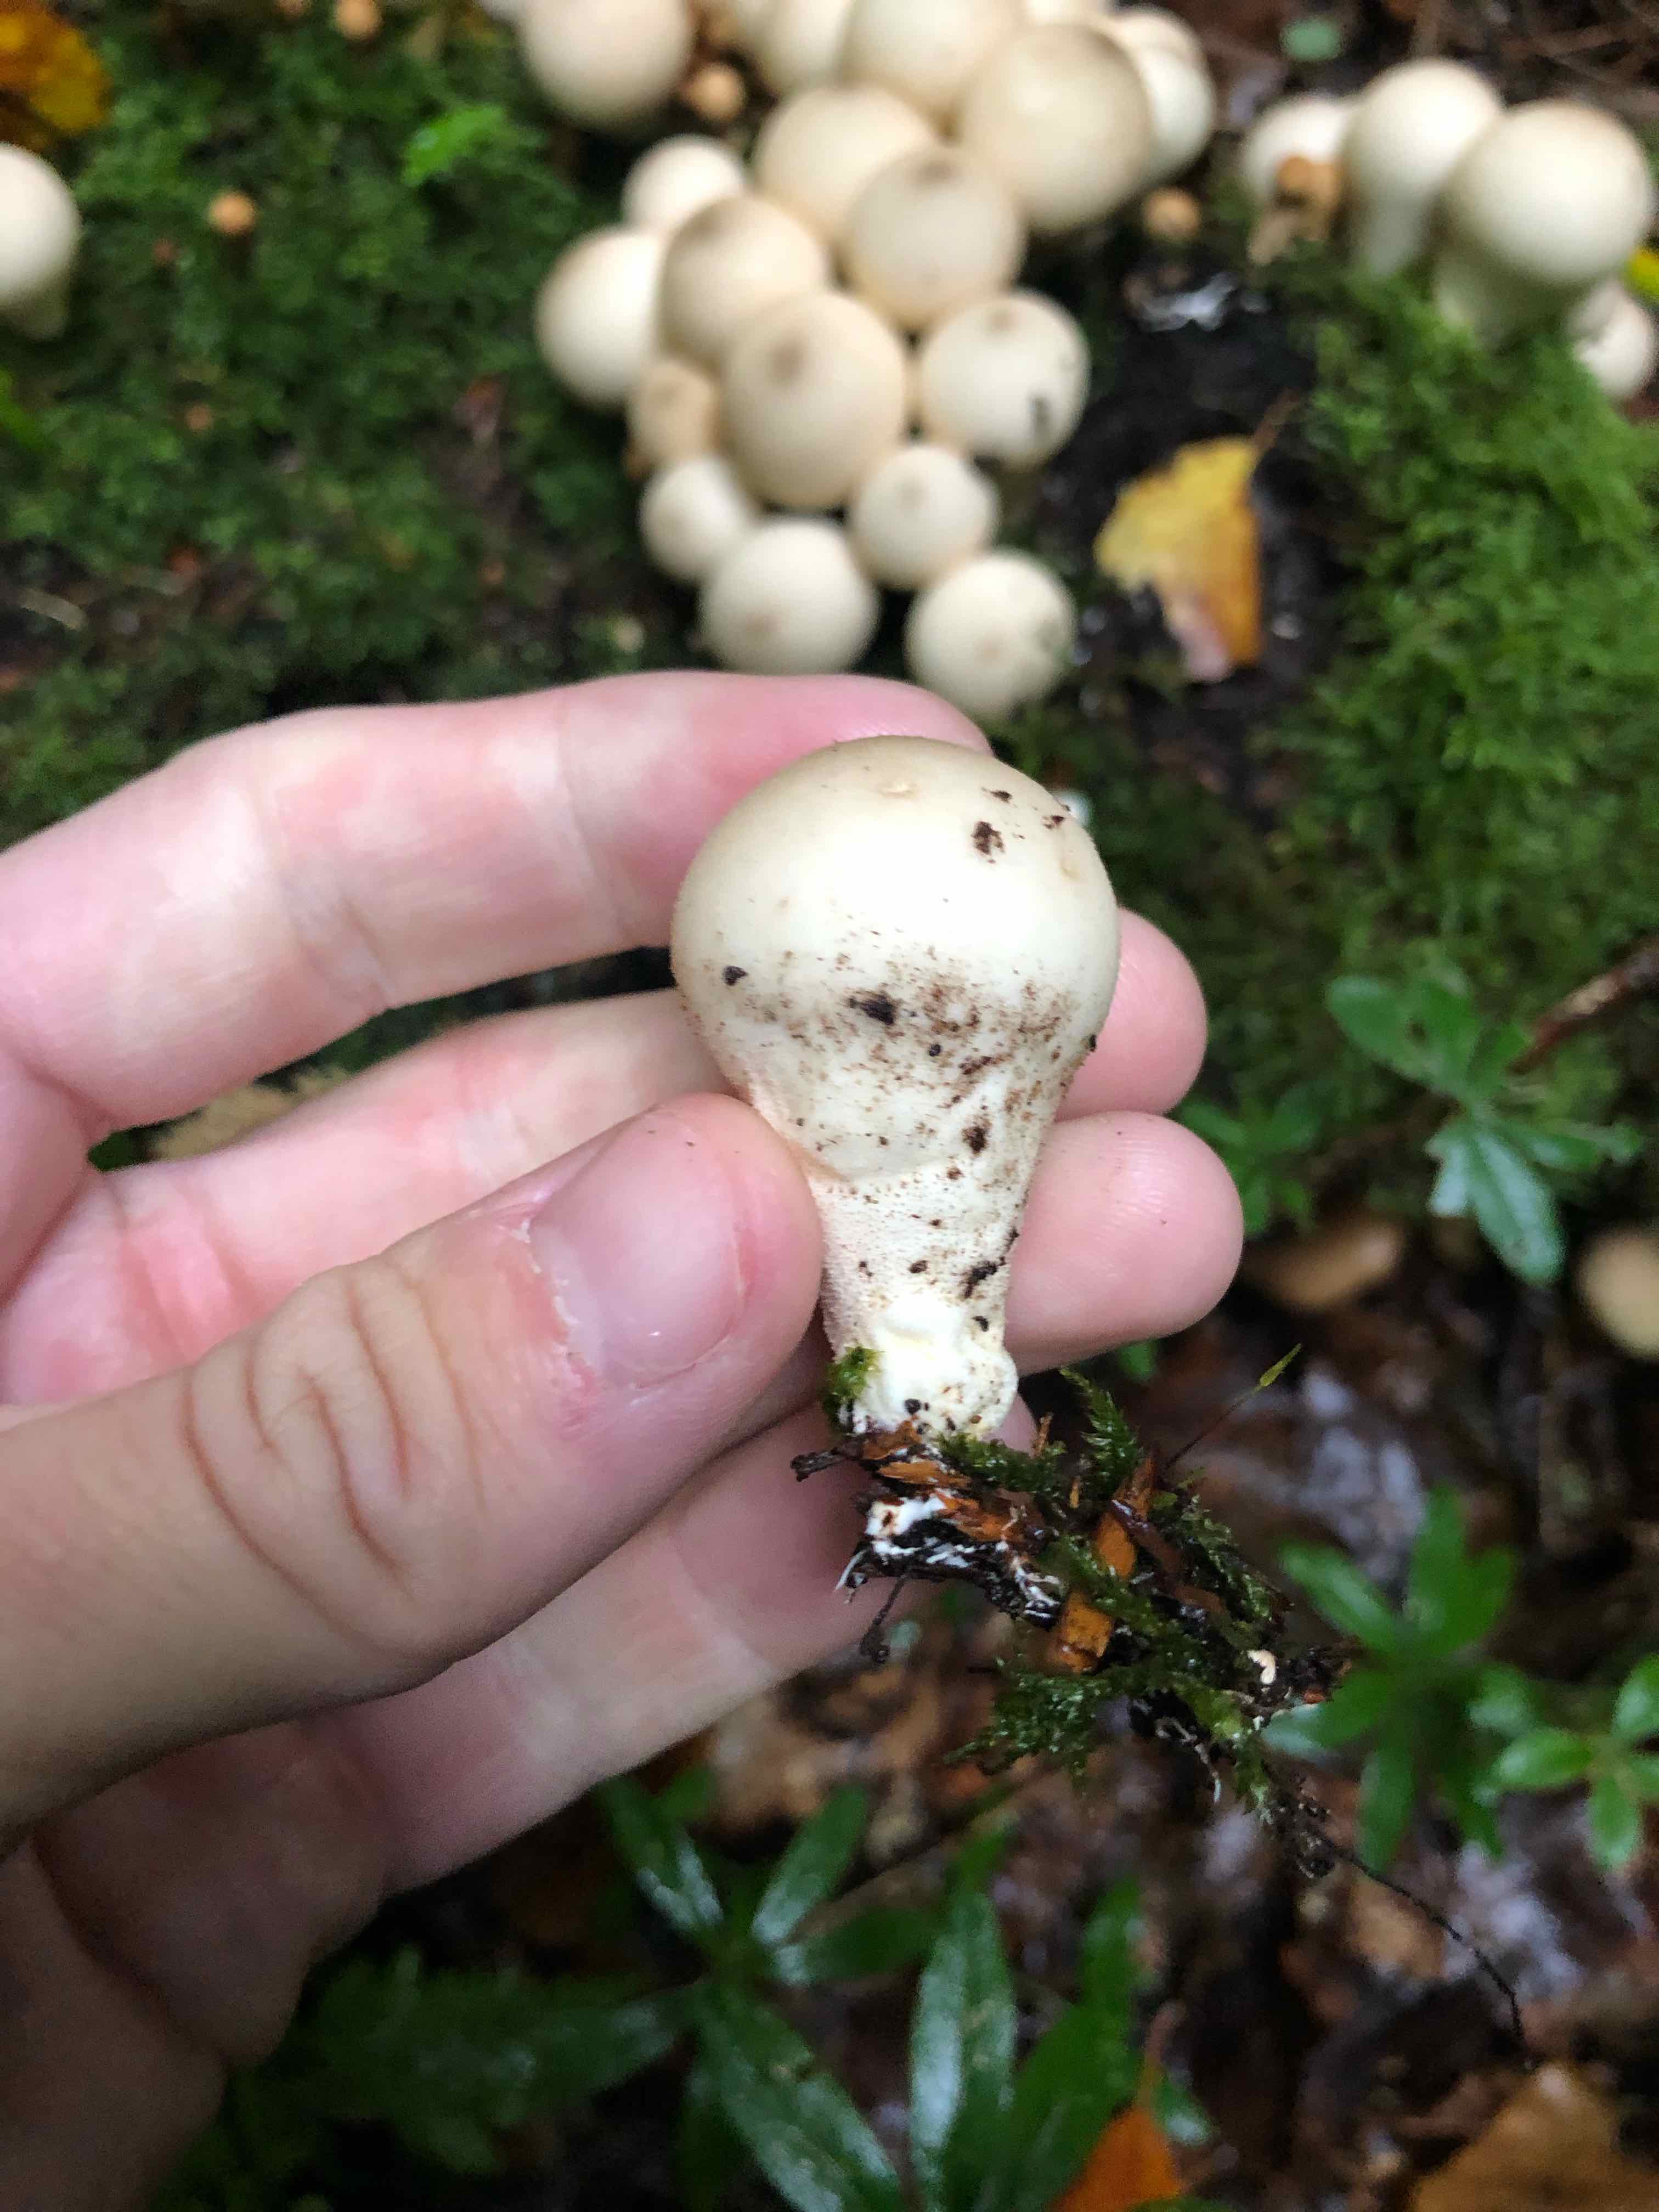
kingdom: Fungi
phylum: Basidiomycota
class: Agaricomycetes
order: Agaricales
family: Lycoperdaceae
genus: Apioperdon
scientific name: Apioperdon pyriforme
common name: pære-støvbold
